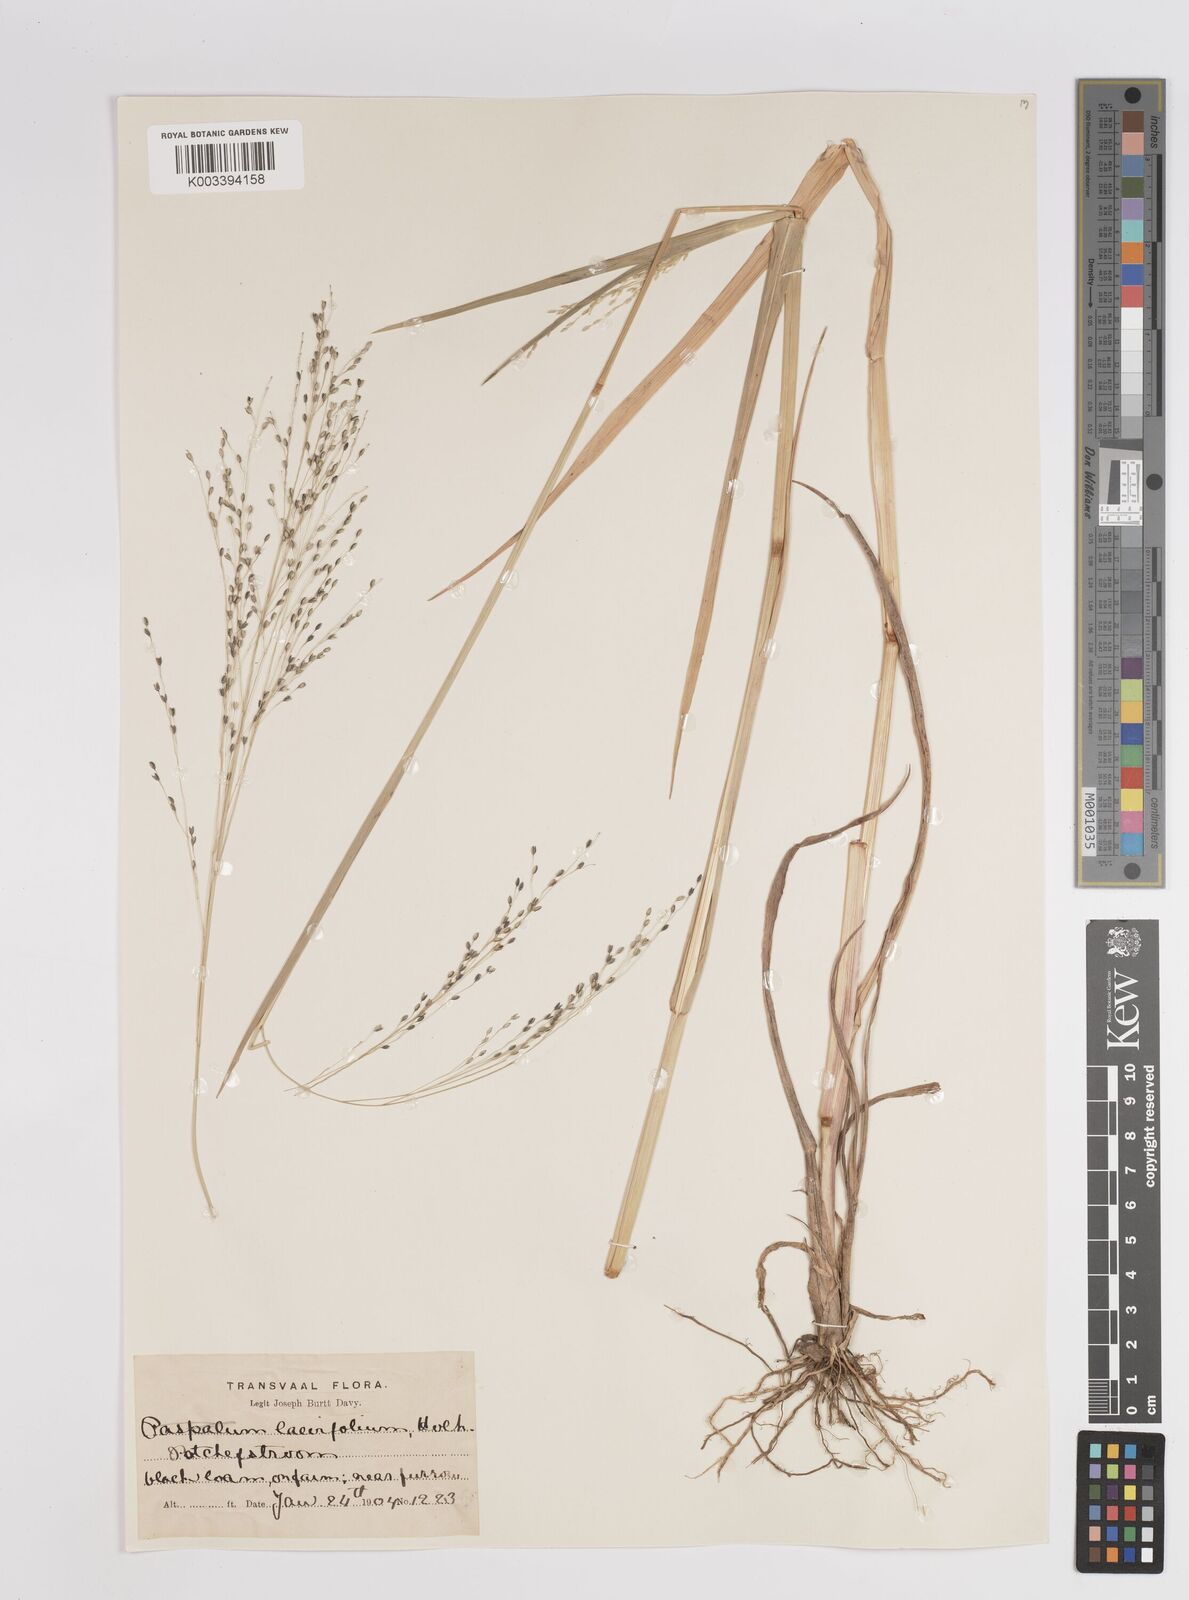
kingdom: Plantae
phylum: Tracheophyta
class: Liliopsida
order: Poales
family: Poaceae
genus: Panicum
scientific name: Panicum schinzii
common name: Sweet grass
